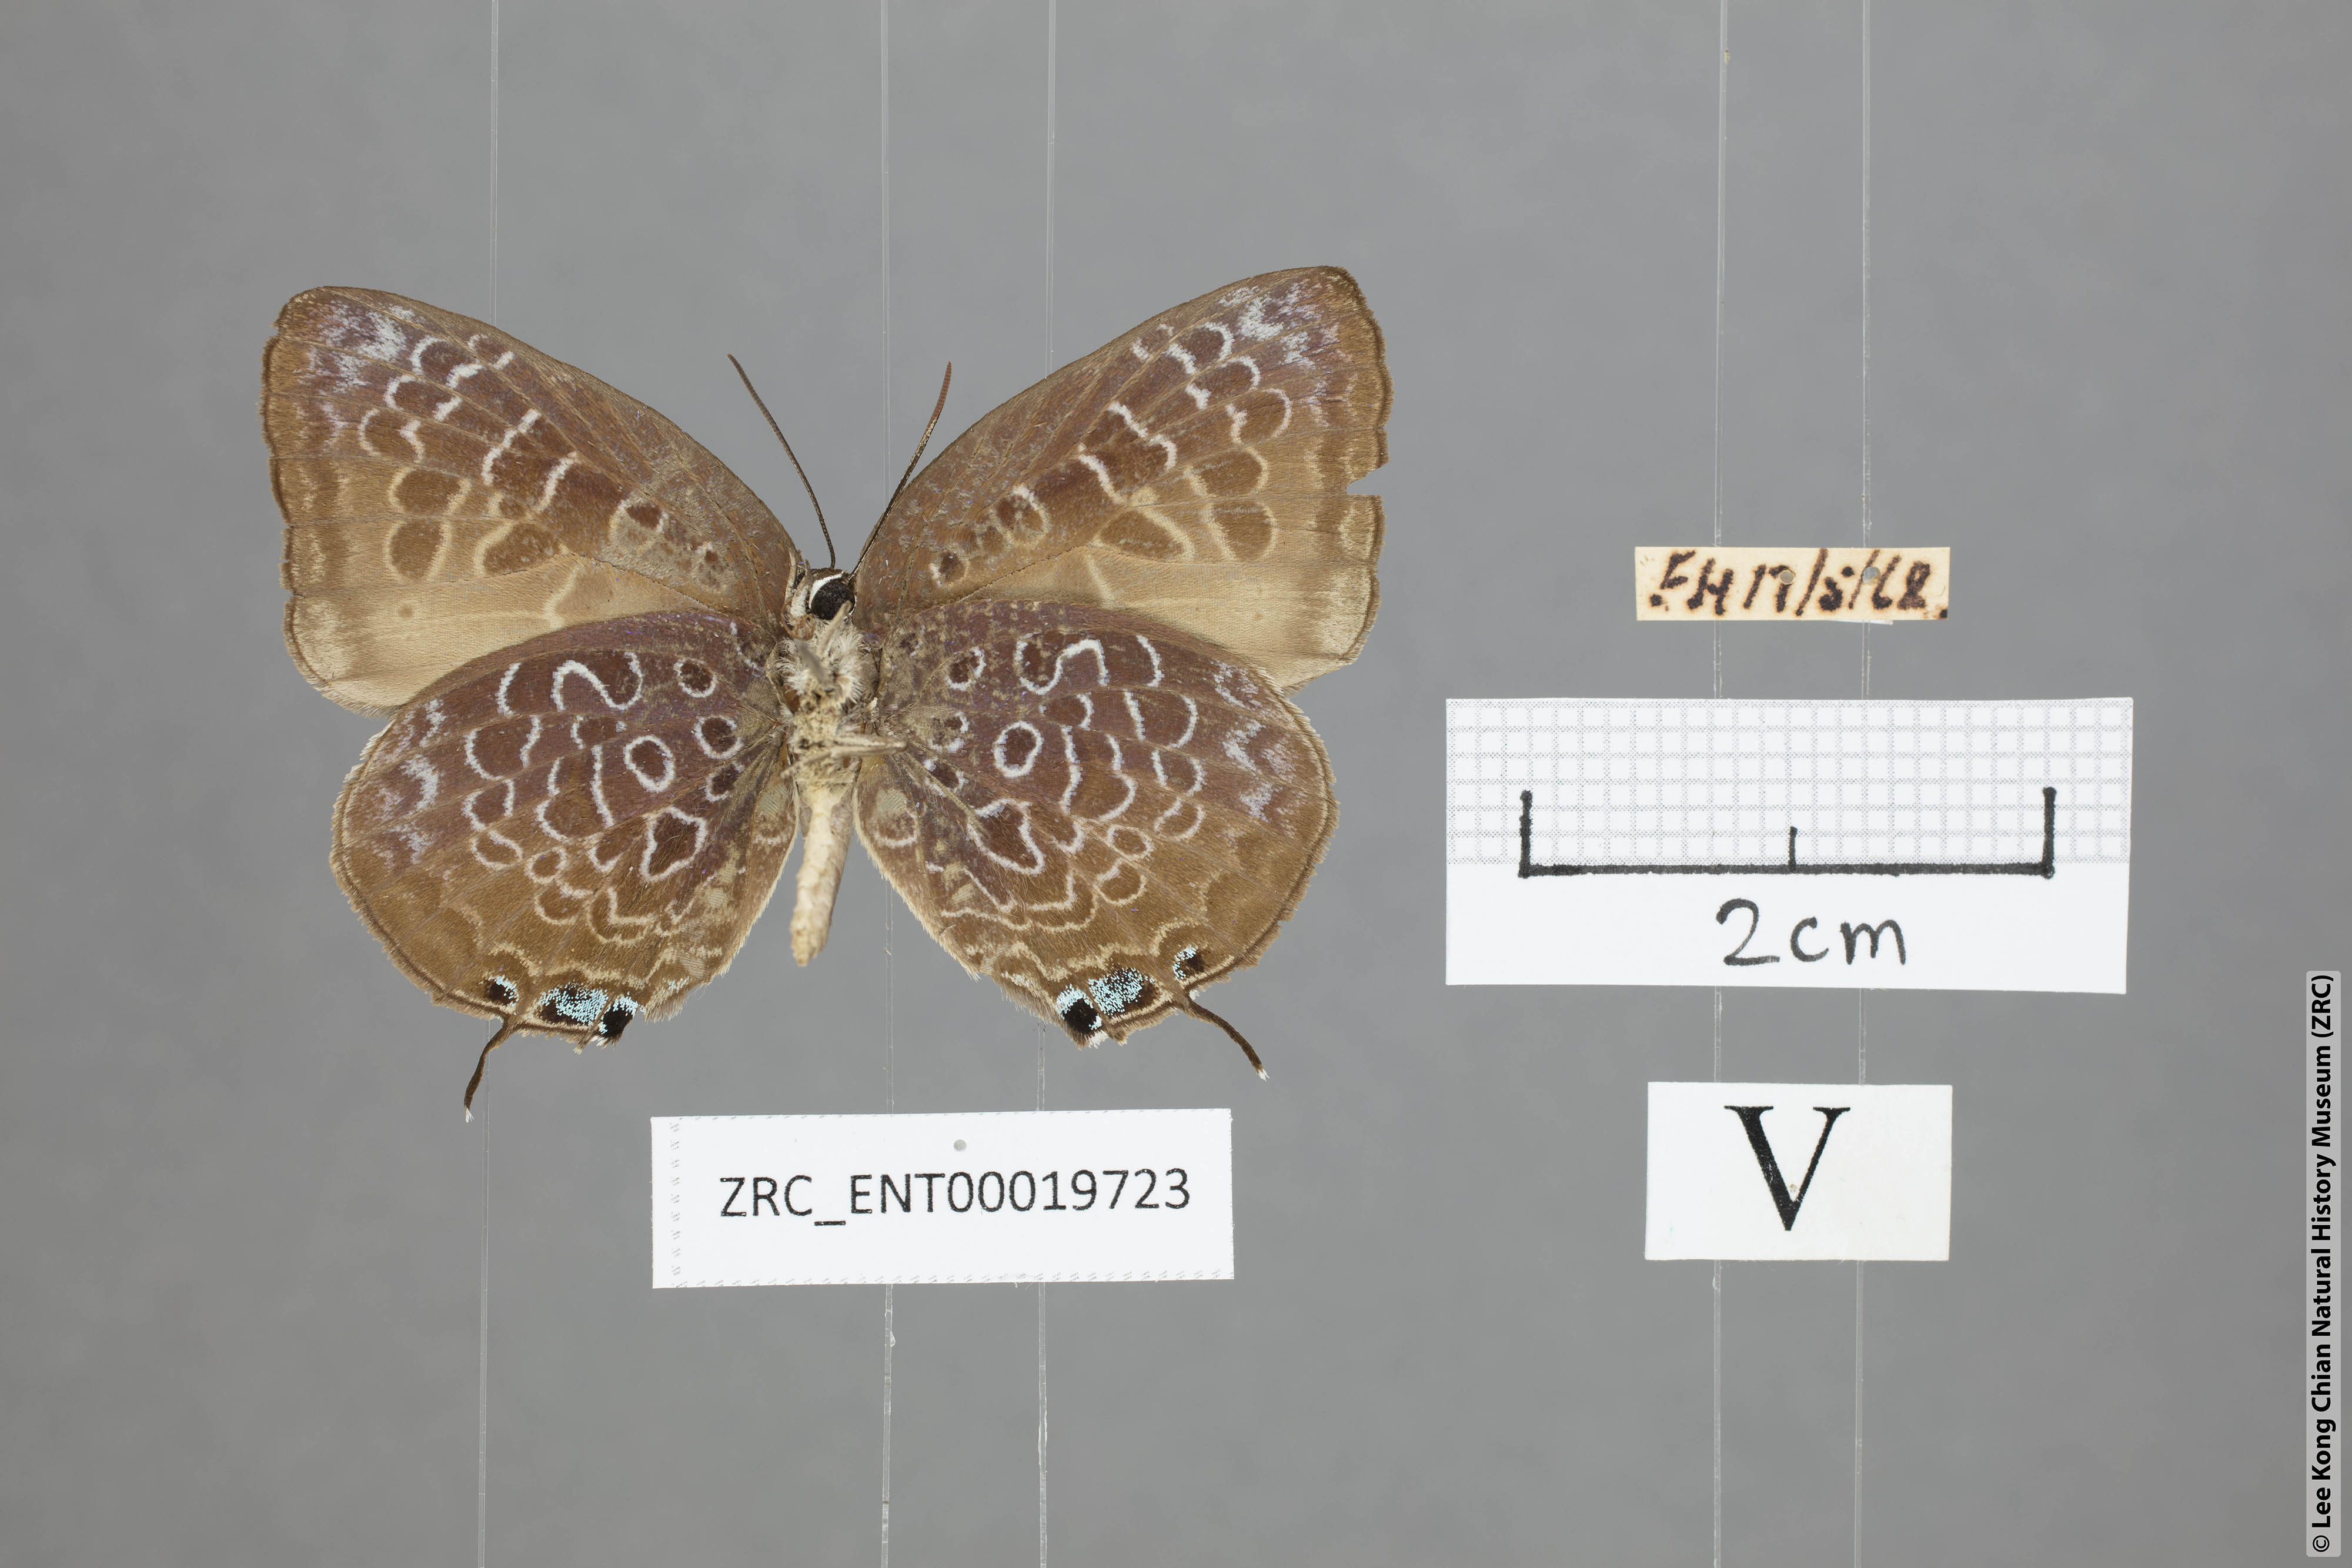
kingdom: Animalia
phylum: Arthropoda
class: Insecta
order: Lepidoptera
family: Lycaenidae
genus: Arhopala
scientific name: Arhopala myrzala
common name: Malayan oakblue
